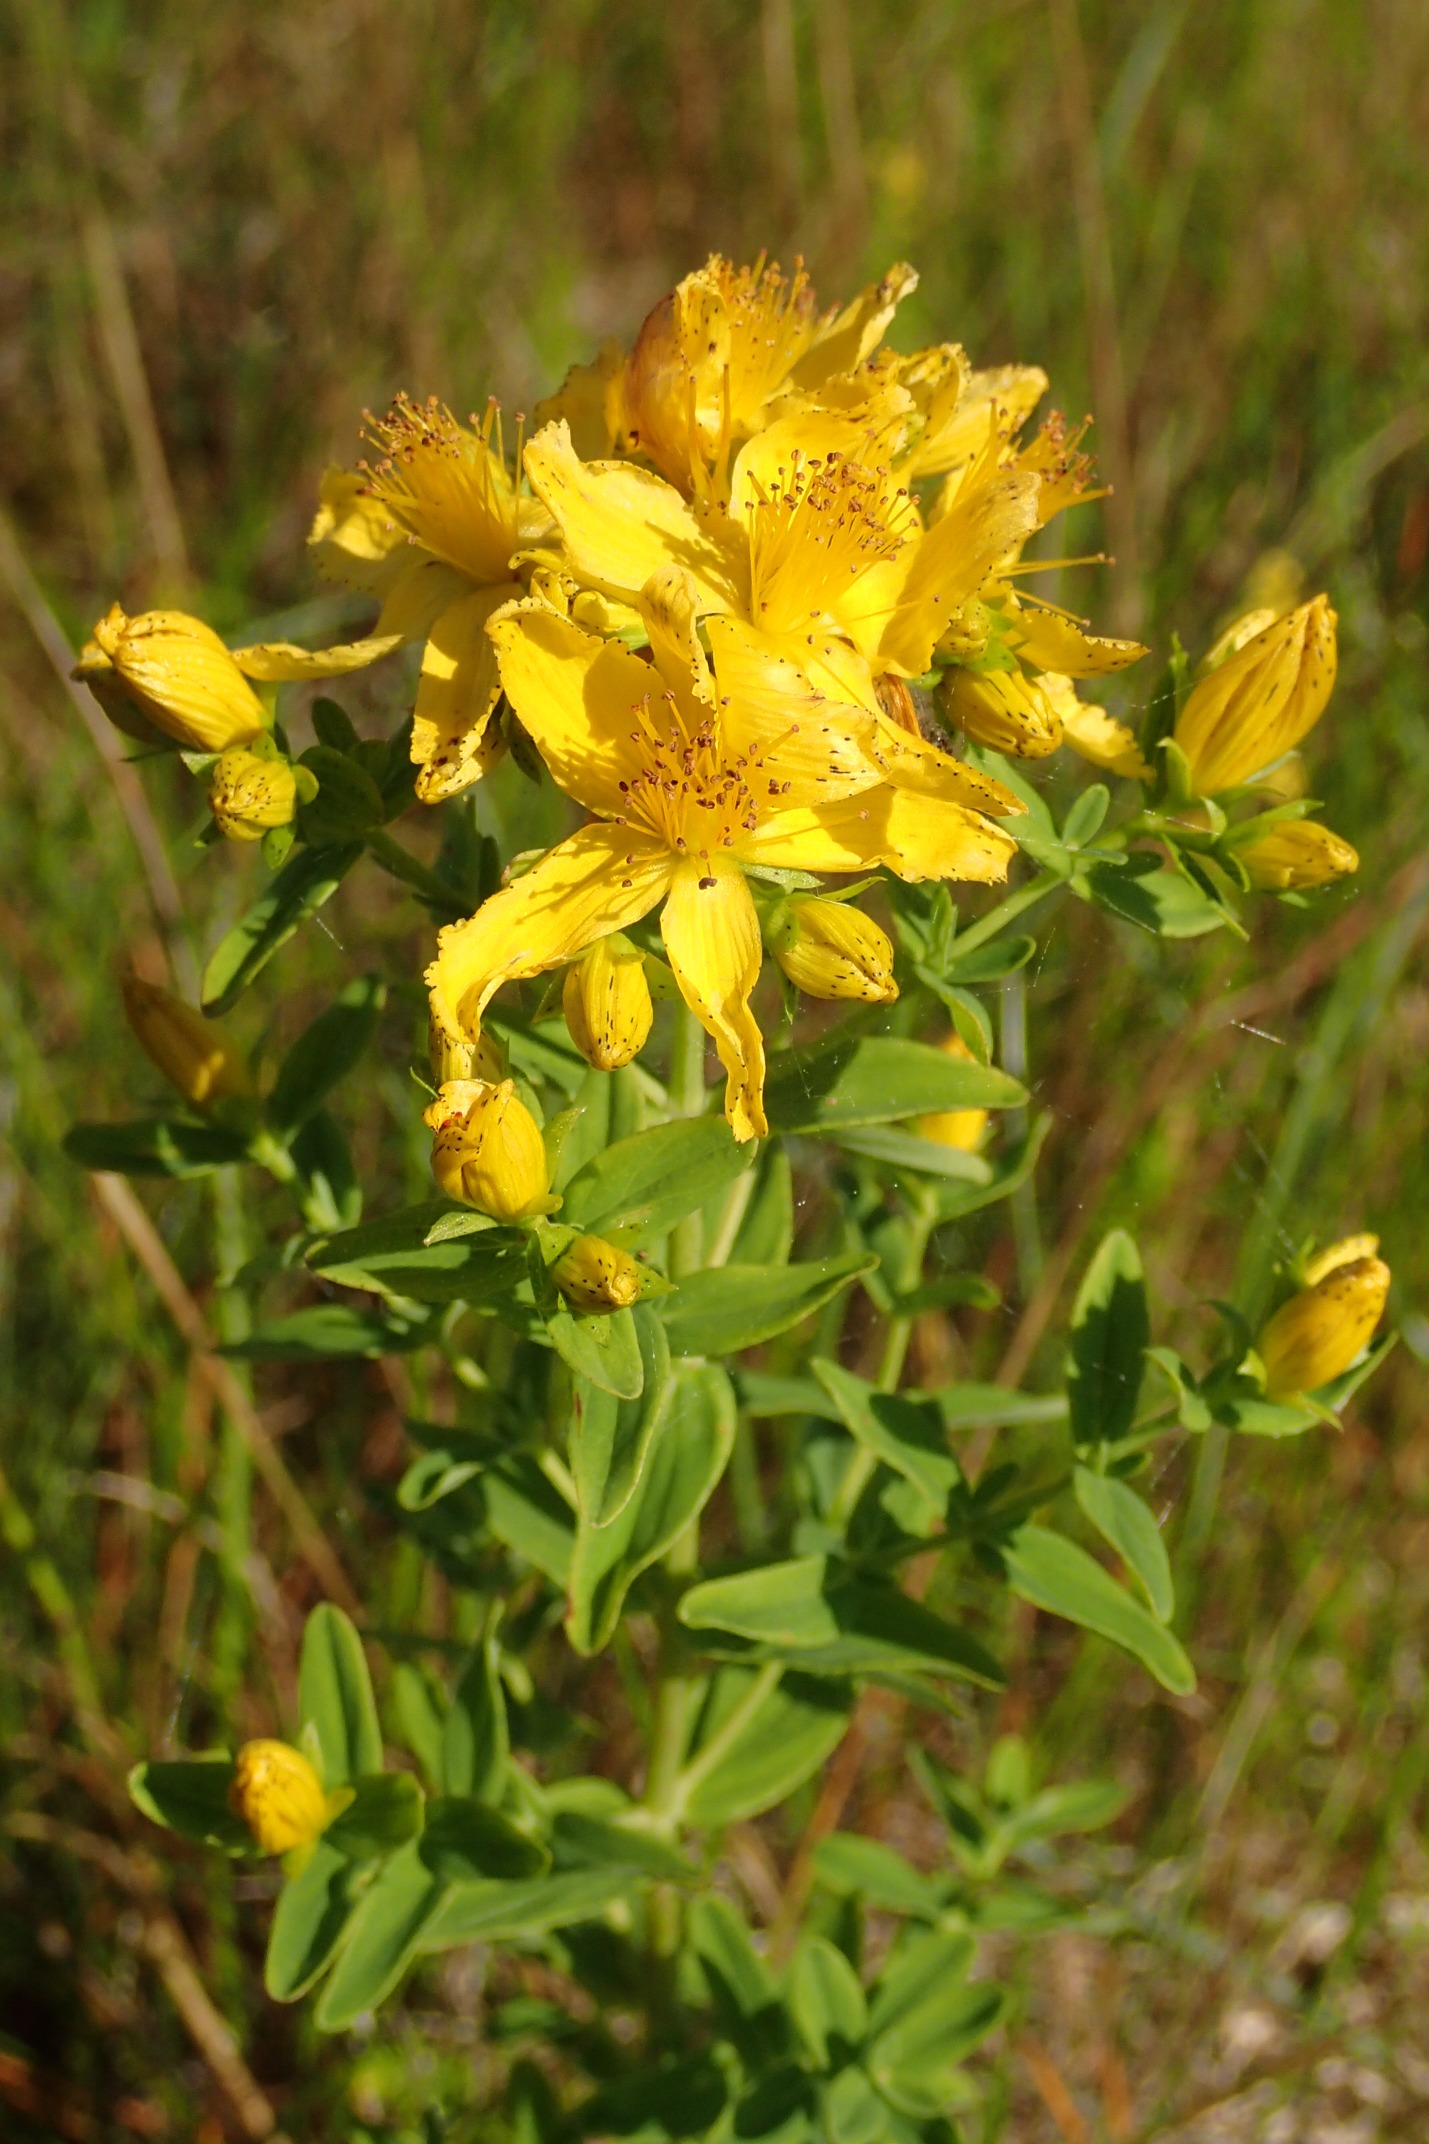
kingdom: Plantae
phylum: Tracheophyta
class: Magnoliopsida
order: Malpighiales
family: Hypericaceae
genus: Hypericum
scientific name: Hypericum perforatum
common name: Prikbladet perikon
